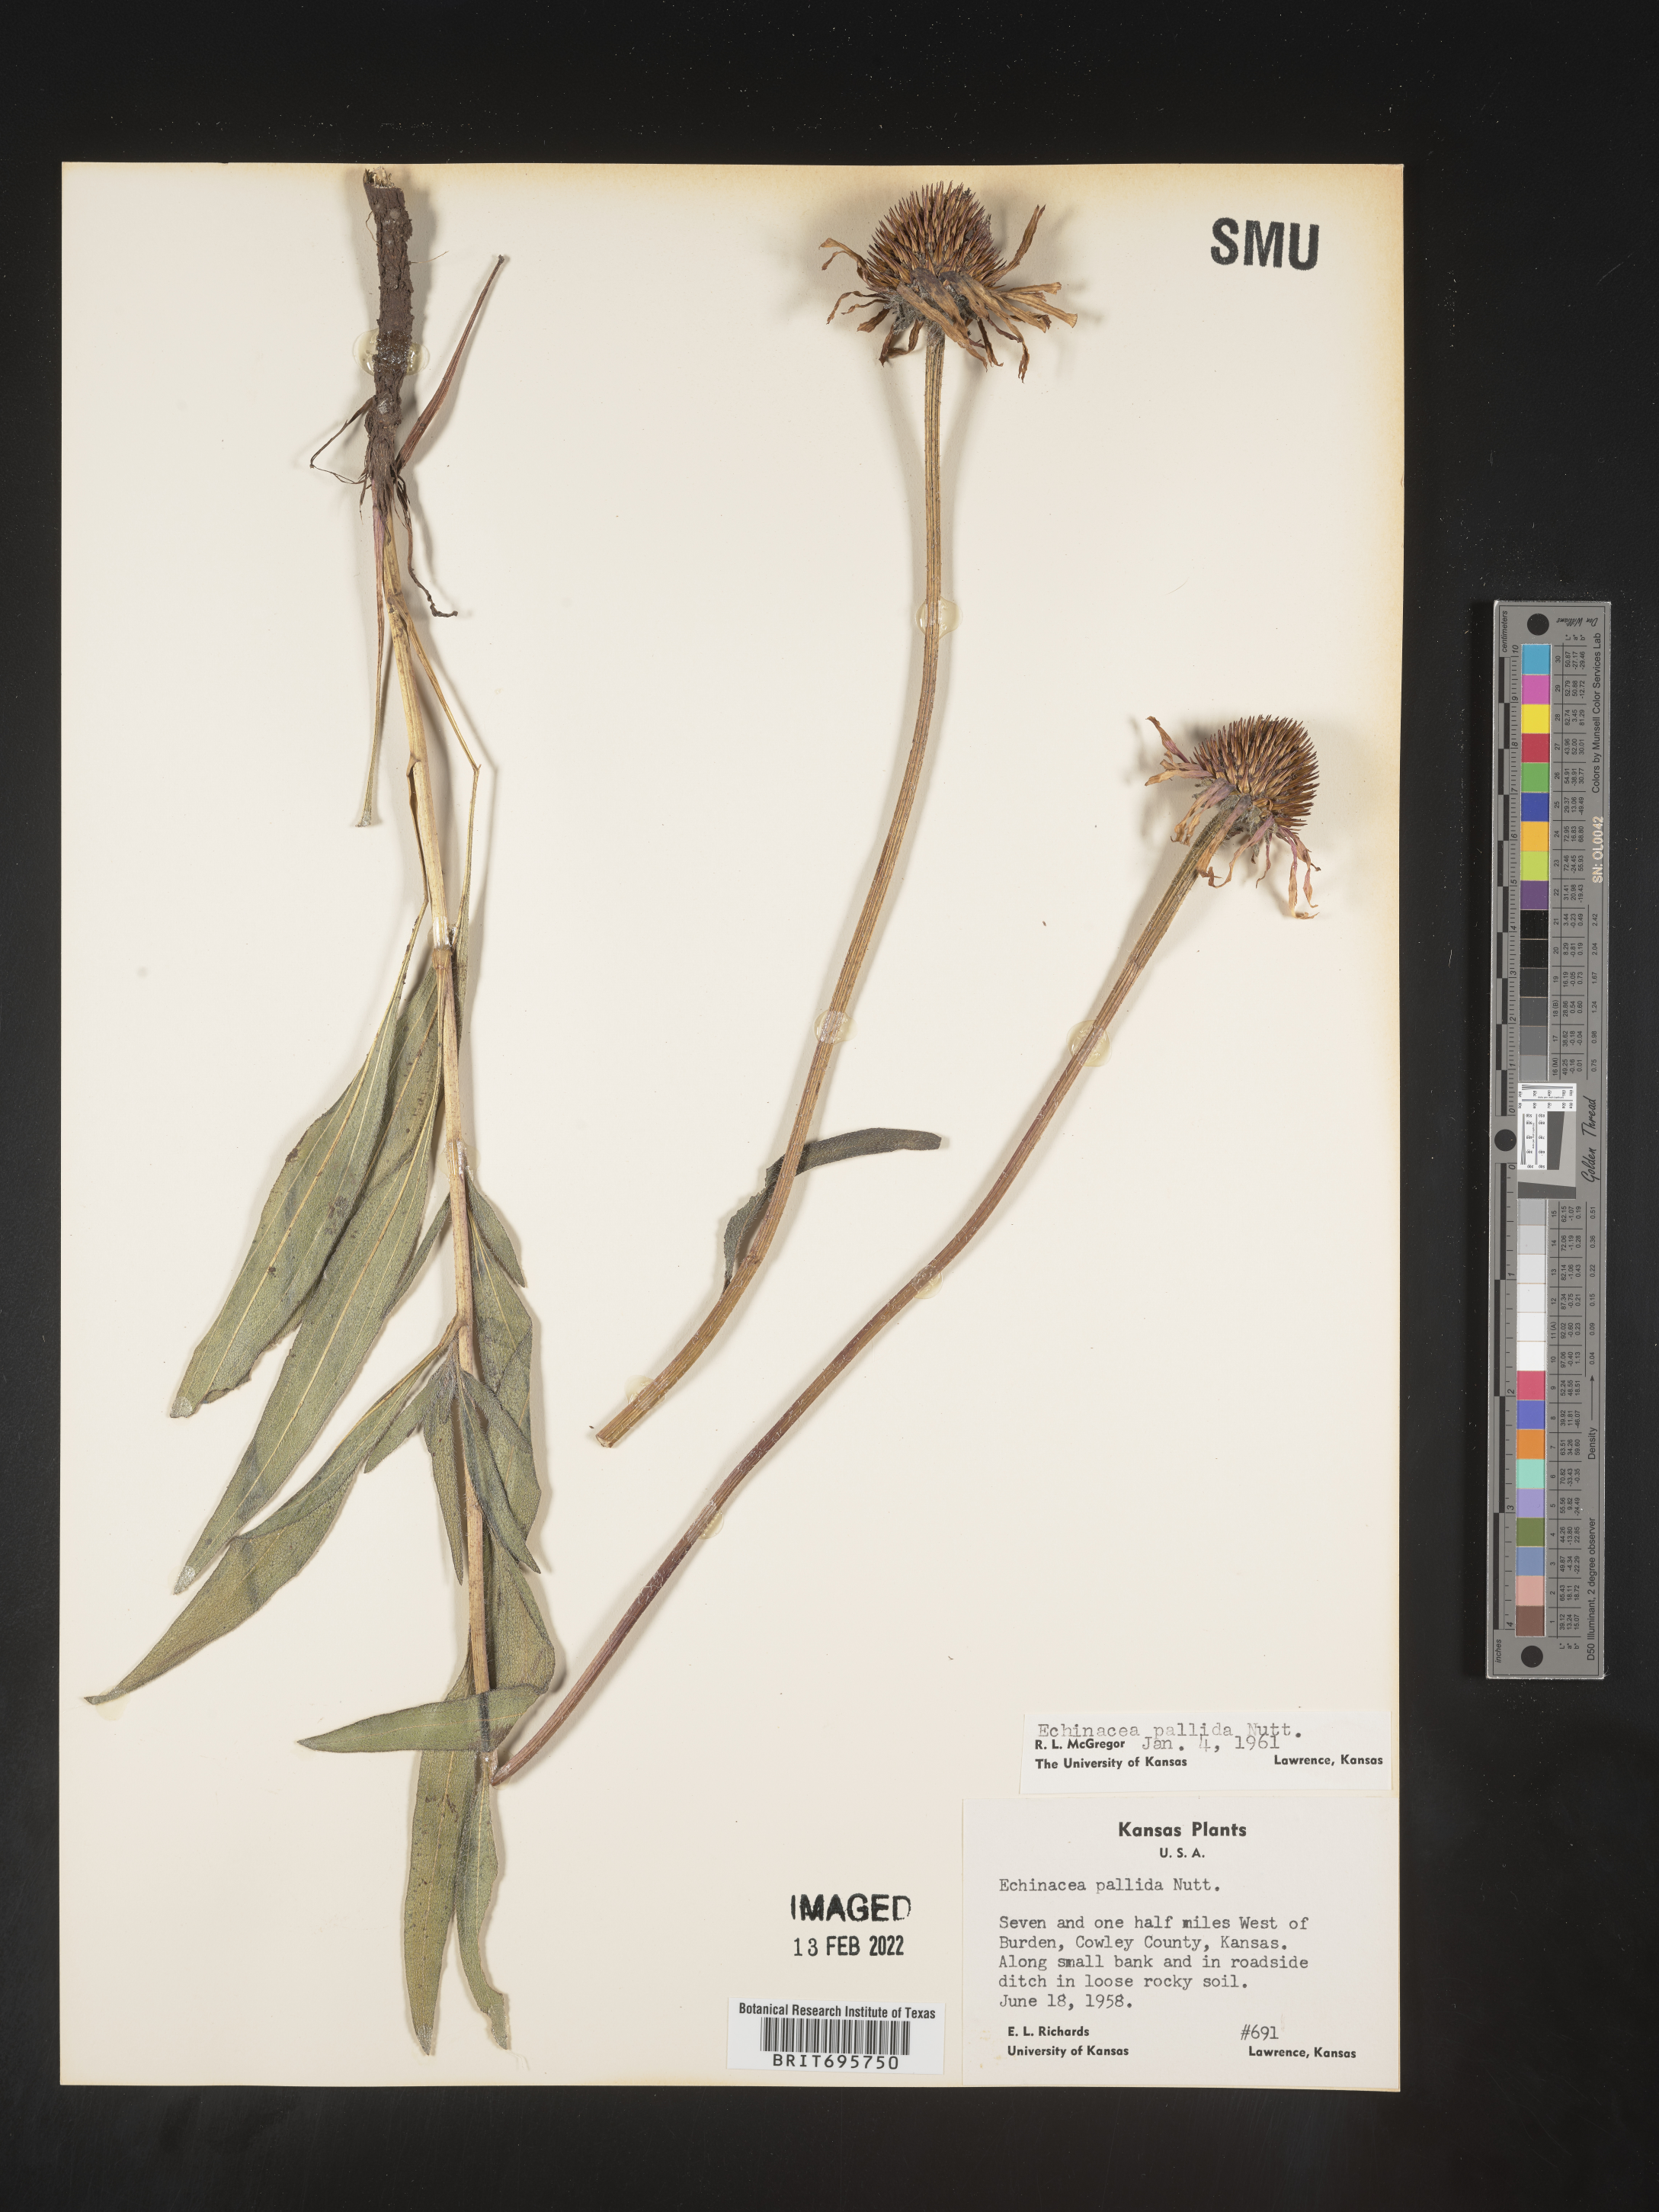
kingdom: Plantae
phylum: Tracheophyta
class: Magnoliopsida
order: Asterales
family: Asteraceae
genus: Echinacea
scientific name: Echinacea pallida
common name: Pale echinacea
